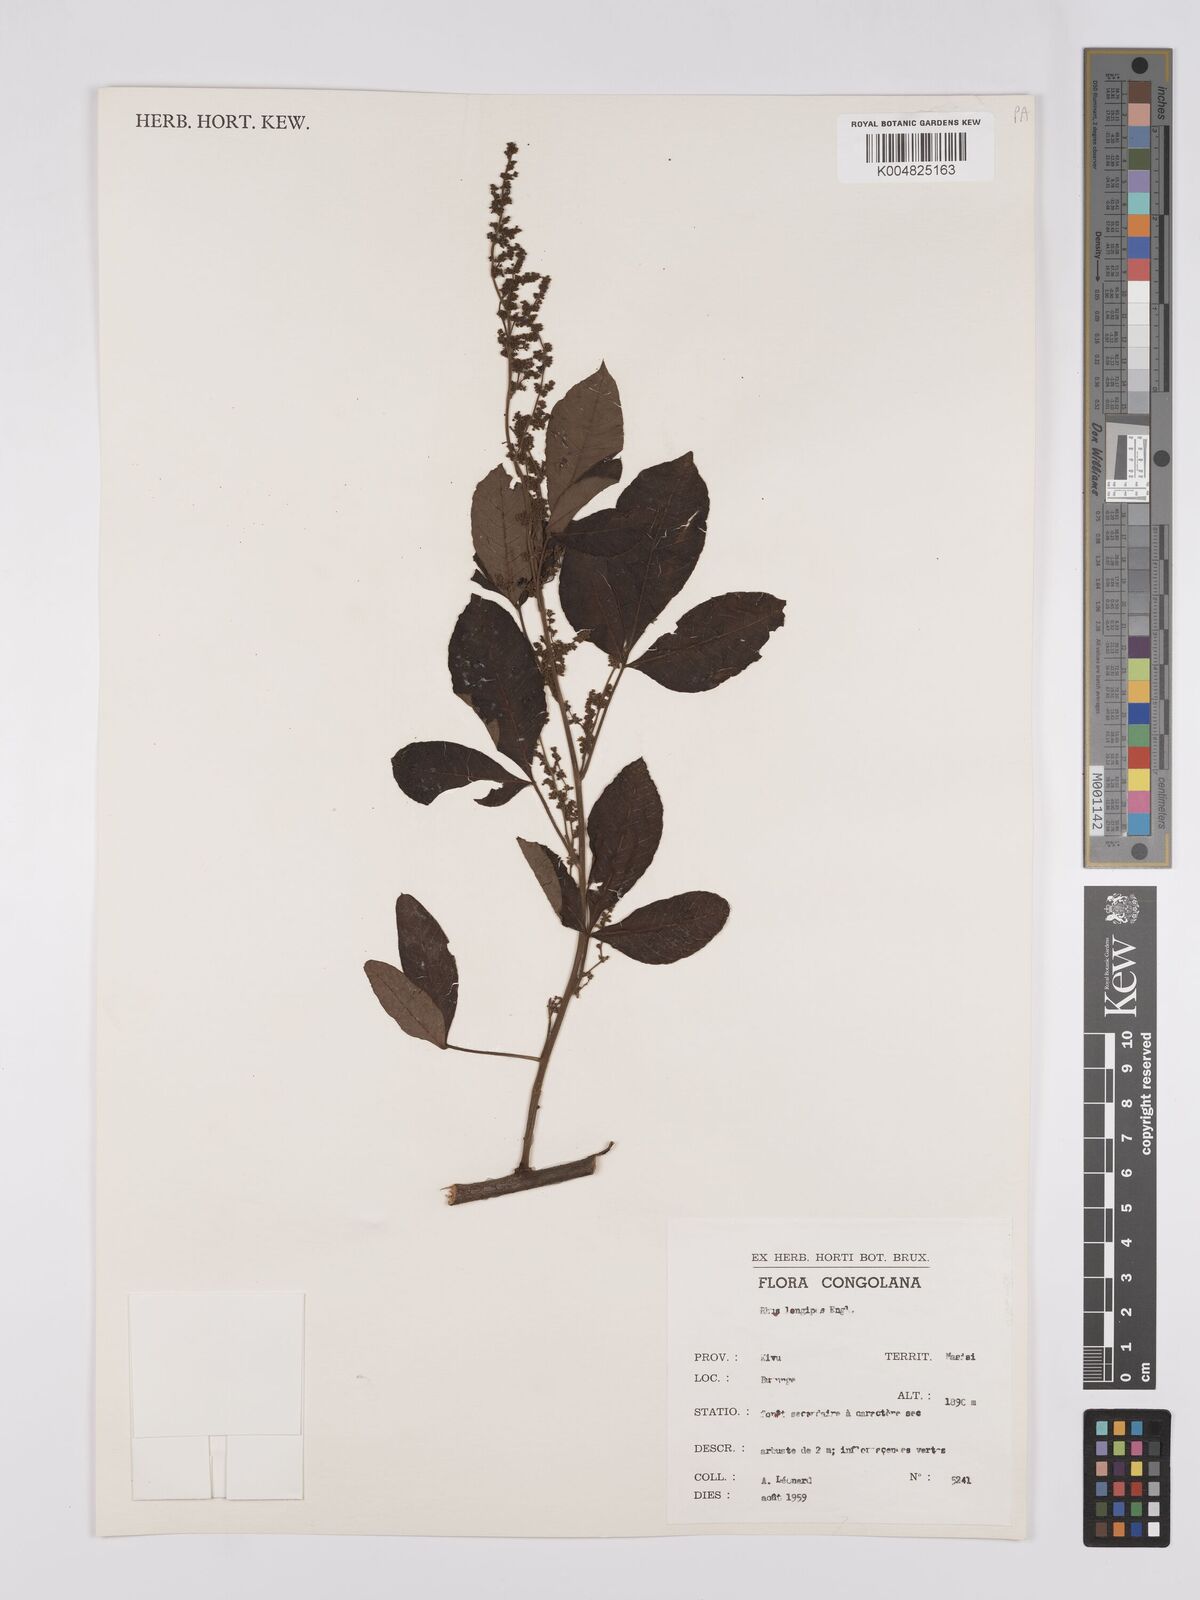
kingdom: Plantae
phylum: Tracheophyta
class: Magnoliopsida
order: Sapindales
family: Anacardiaceae
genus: Searsia
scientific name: Searsia longipes
